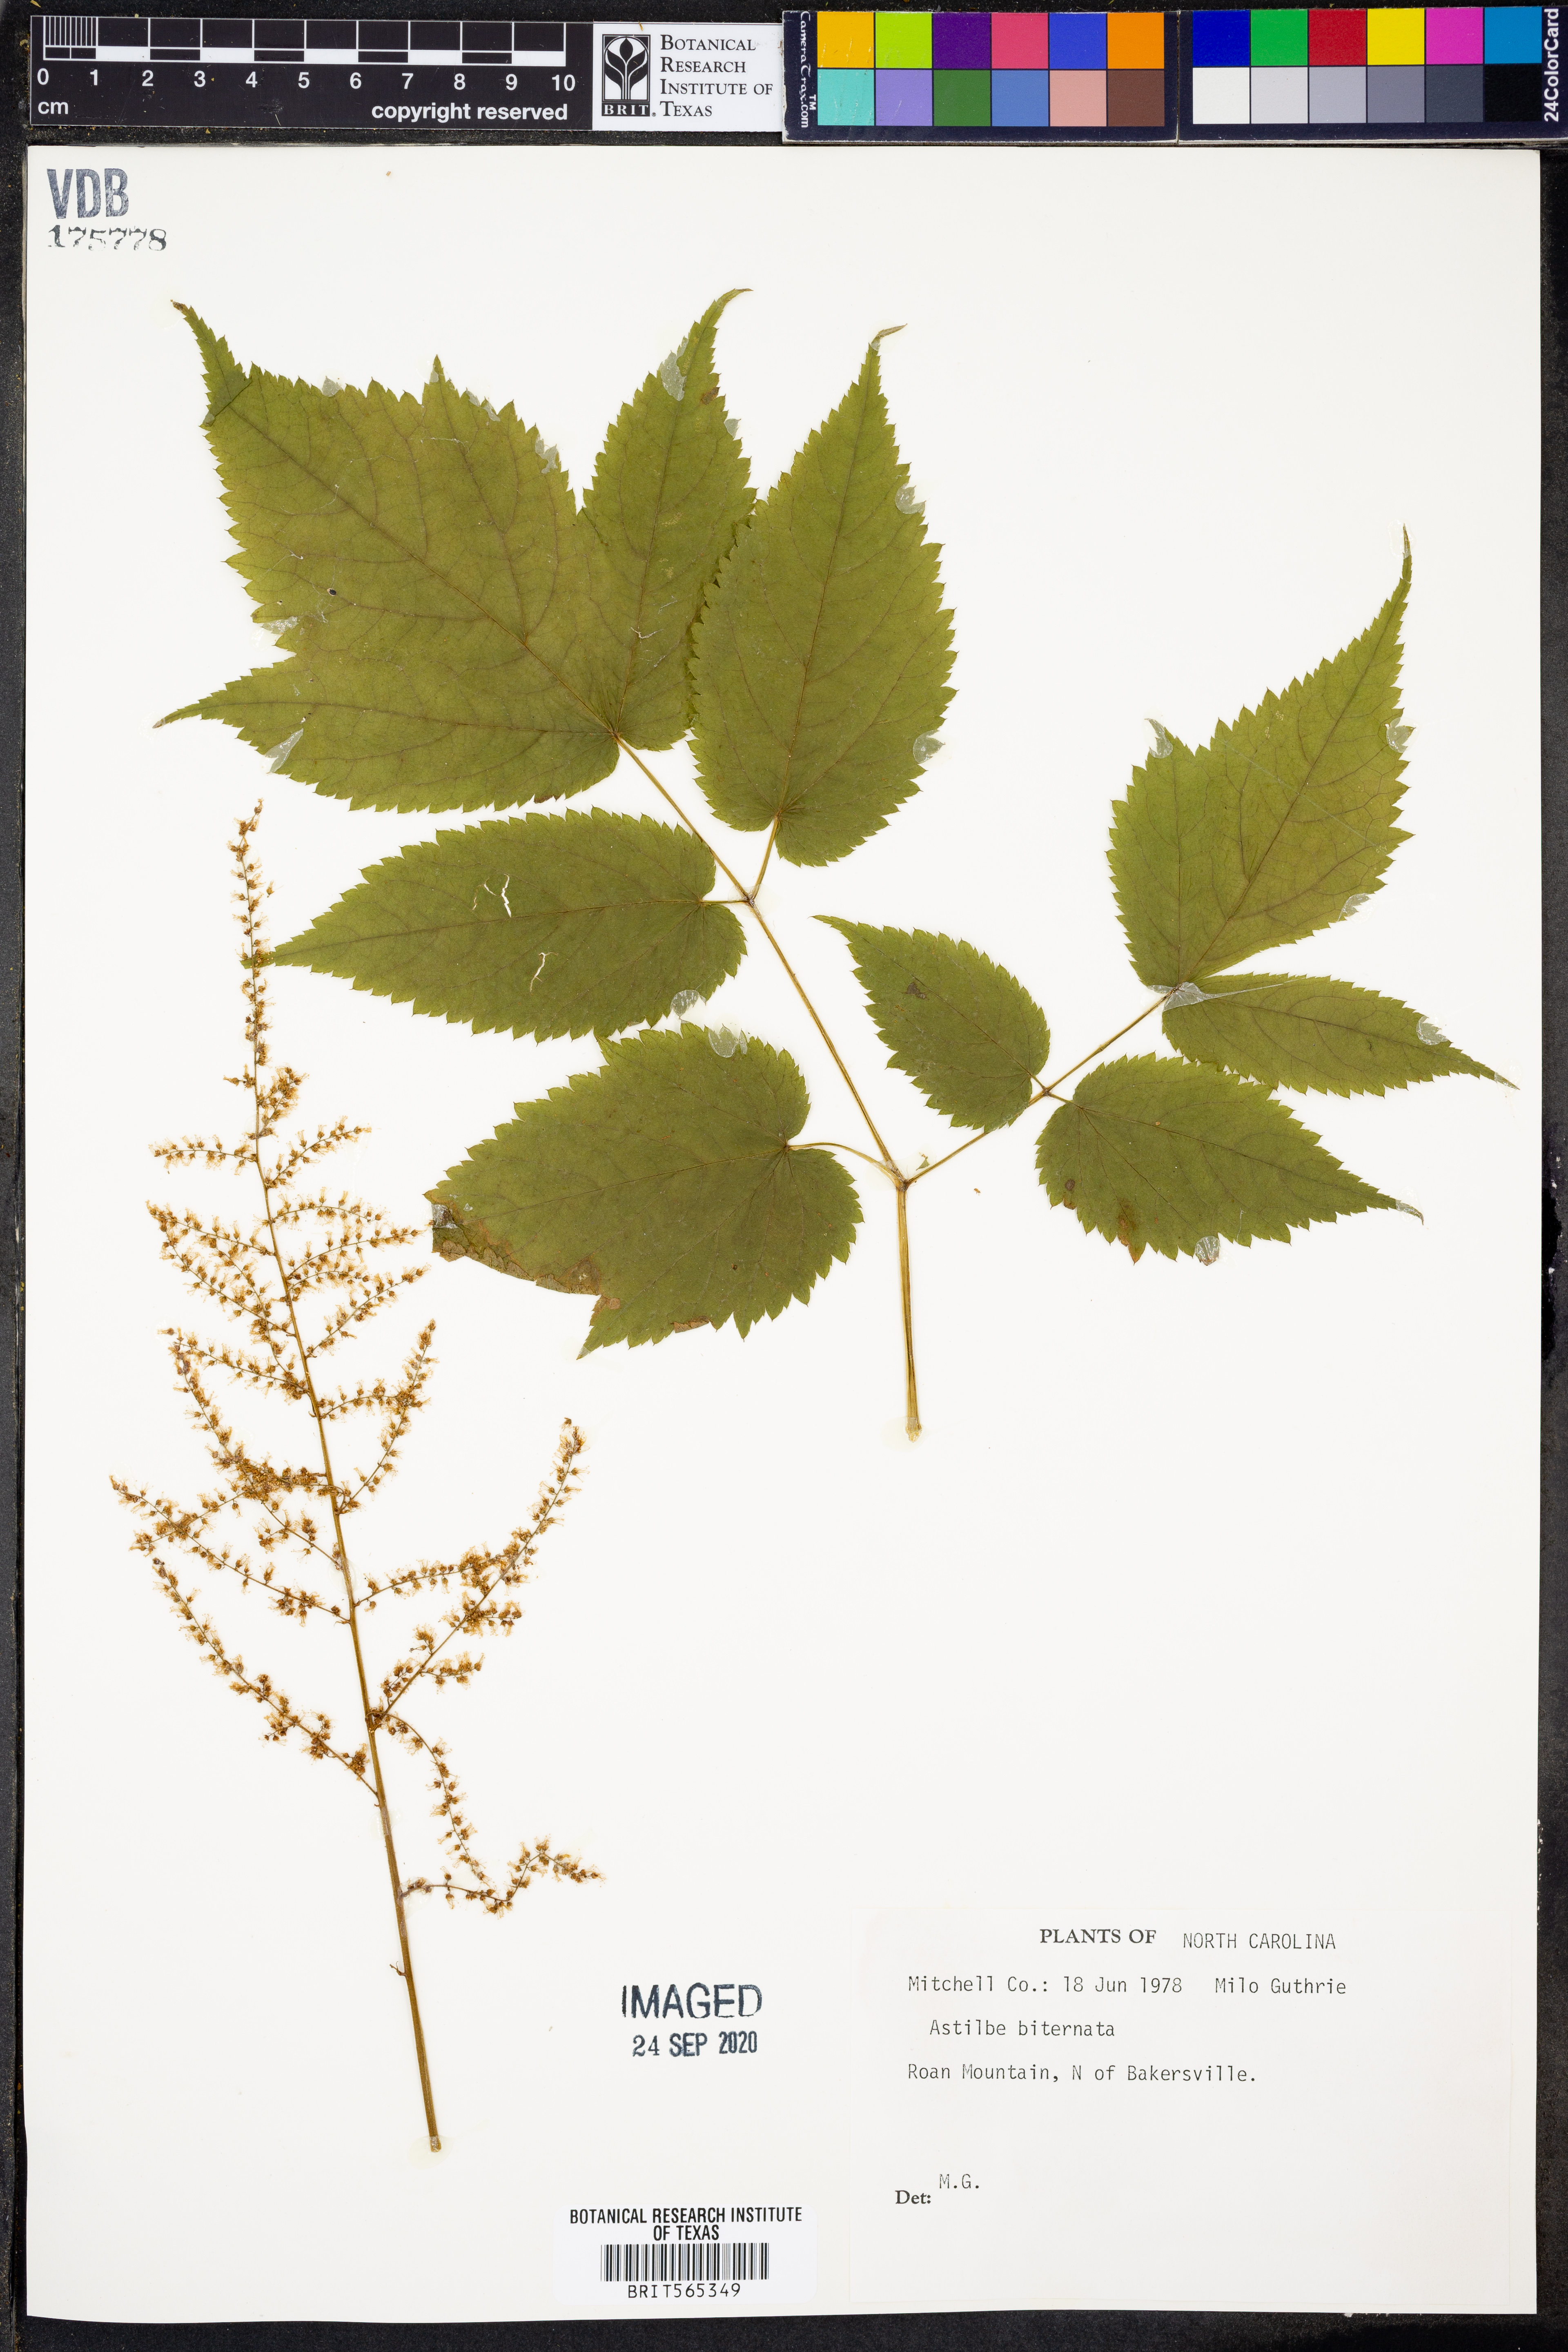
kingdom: Plantae
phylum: Tracheophyta
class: Magnoliopsida
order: Saxifragales
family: Saxifragaceae
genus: Astilbe
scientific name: Astilbe biternata
